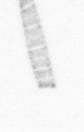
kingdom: Chromista
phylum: Ochrophyta
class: Bacillariophyceae
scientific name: Bacillariophyceae
